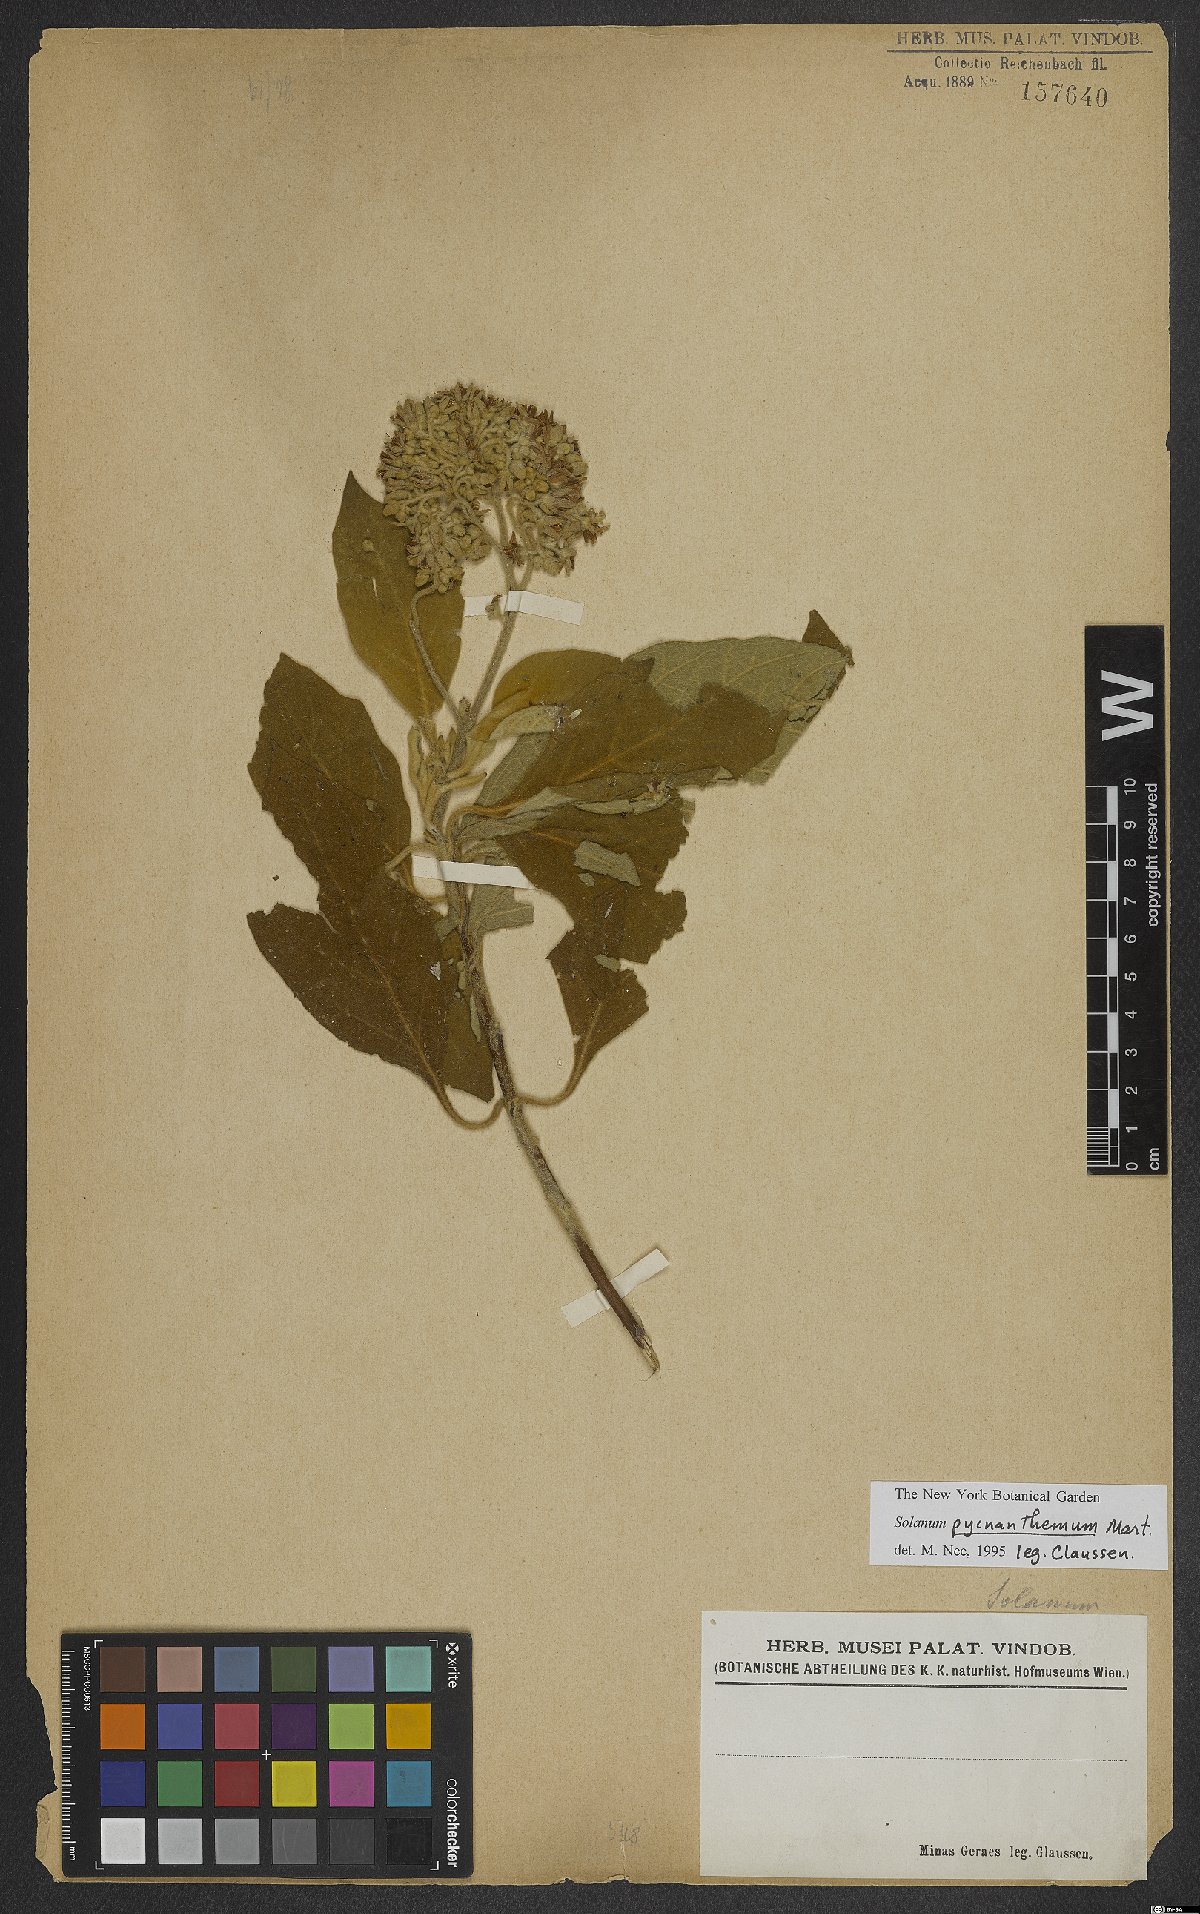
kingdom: Plantae
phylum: Tracheophyta
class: Magnoliopsida
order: Solanales
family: Solanaceae
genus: Solanum
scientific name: Solanum pycnanthemum
